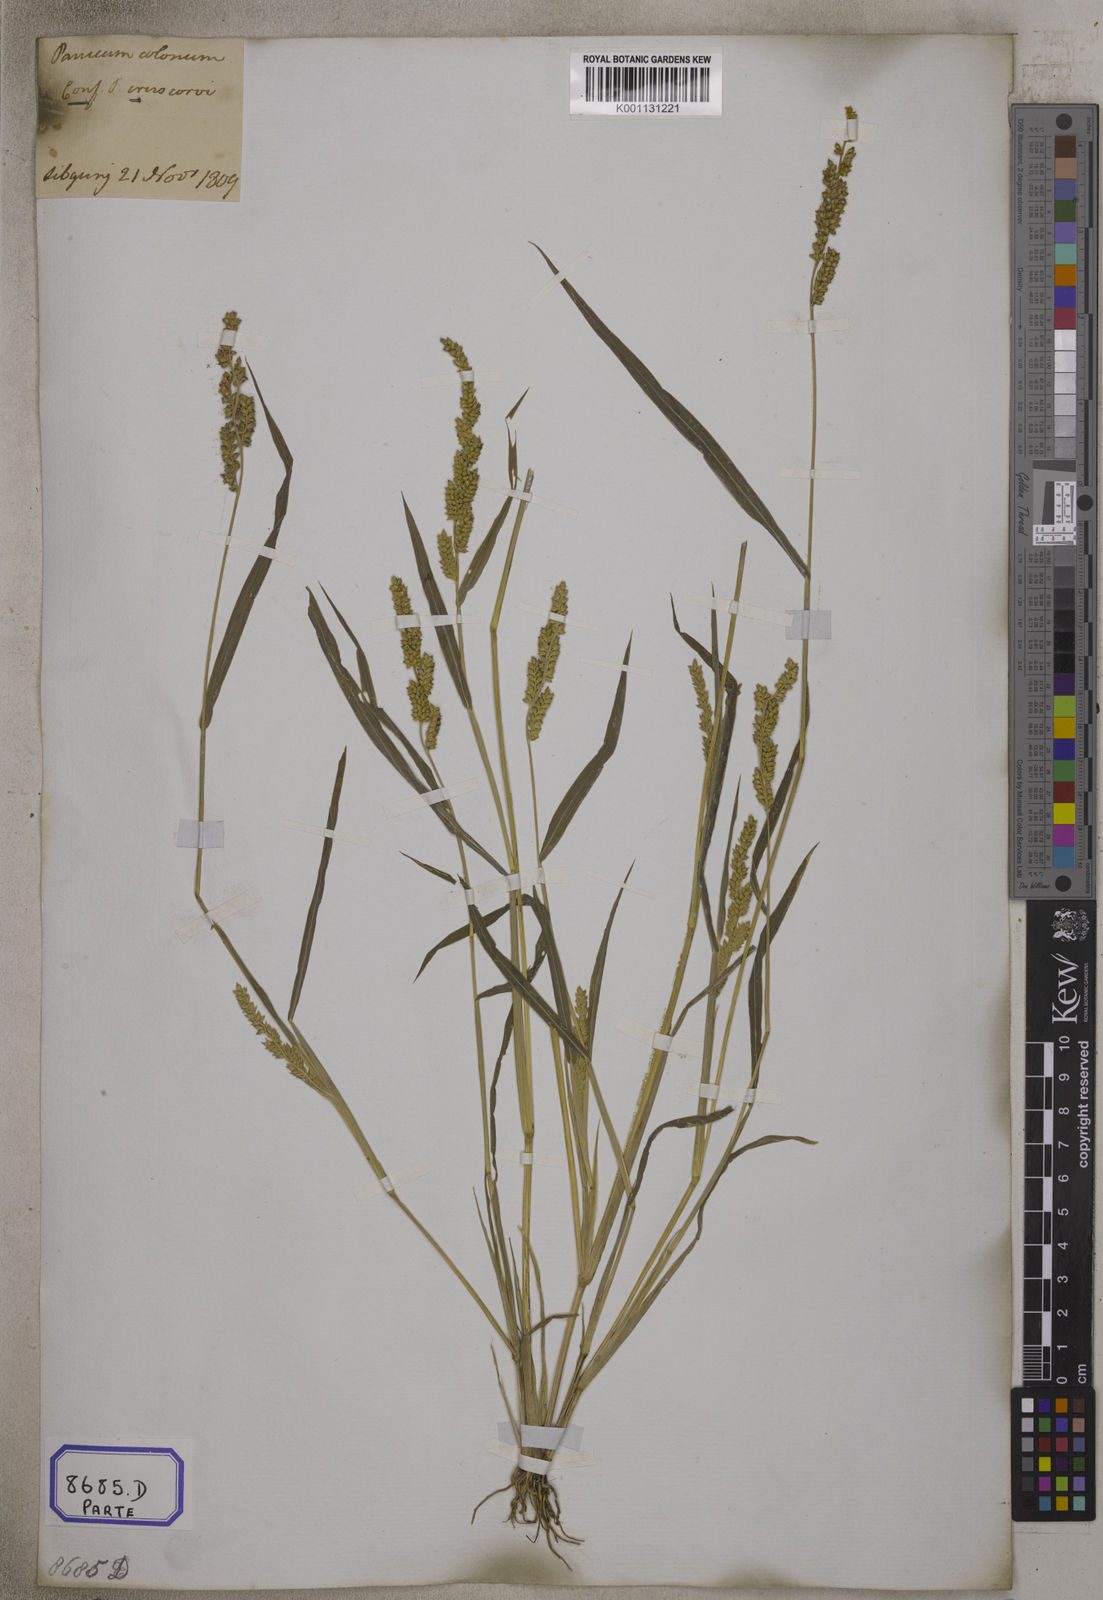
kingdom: Plantae
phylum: Tracheophyta
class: Liliopsida
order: Poales
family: Poaceae
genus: Echinochloa
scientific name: Echinochloa colonum
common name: Jungle rice
